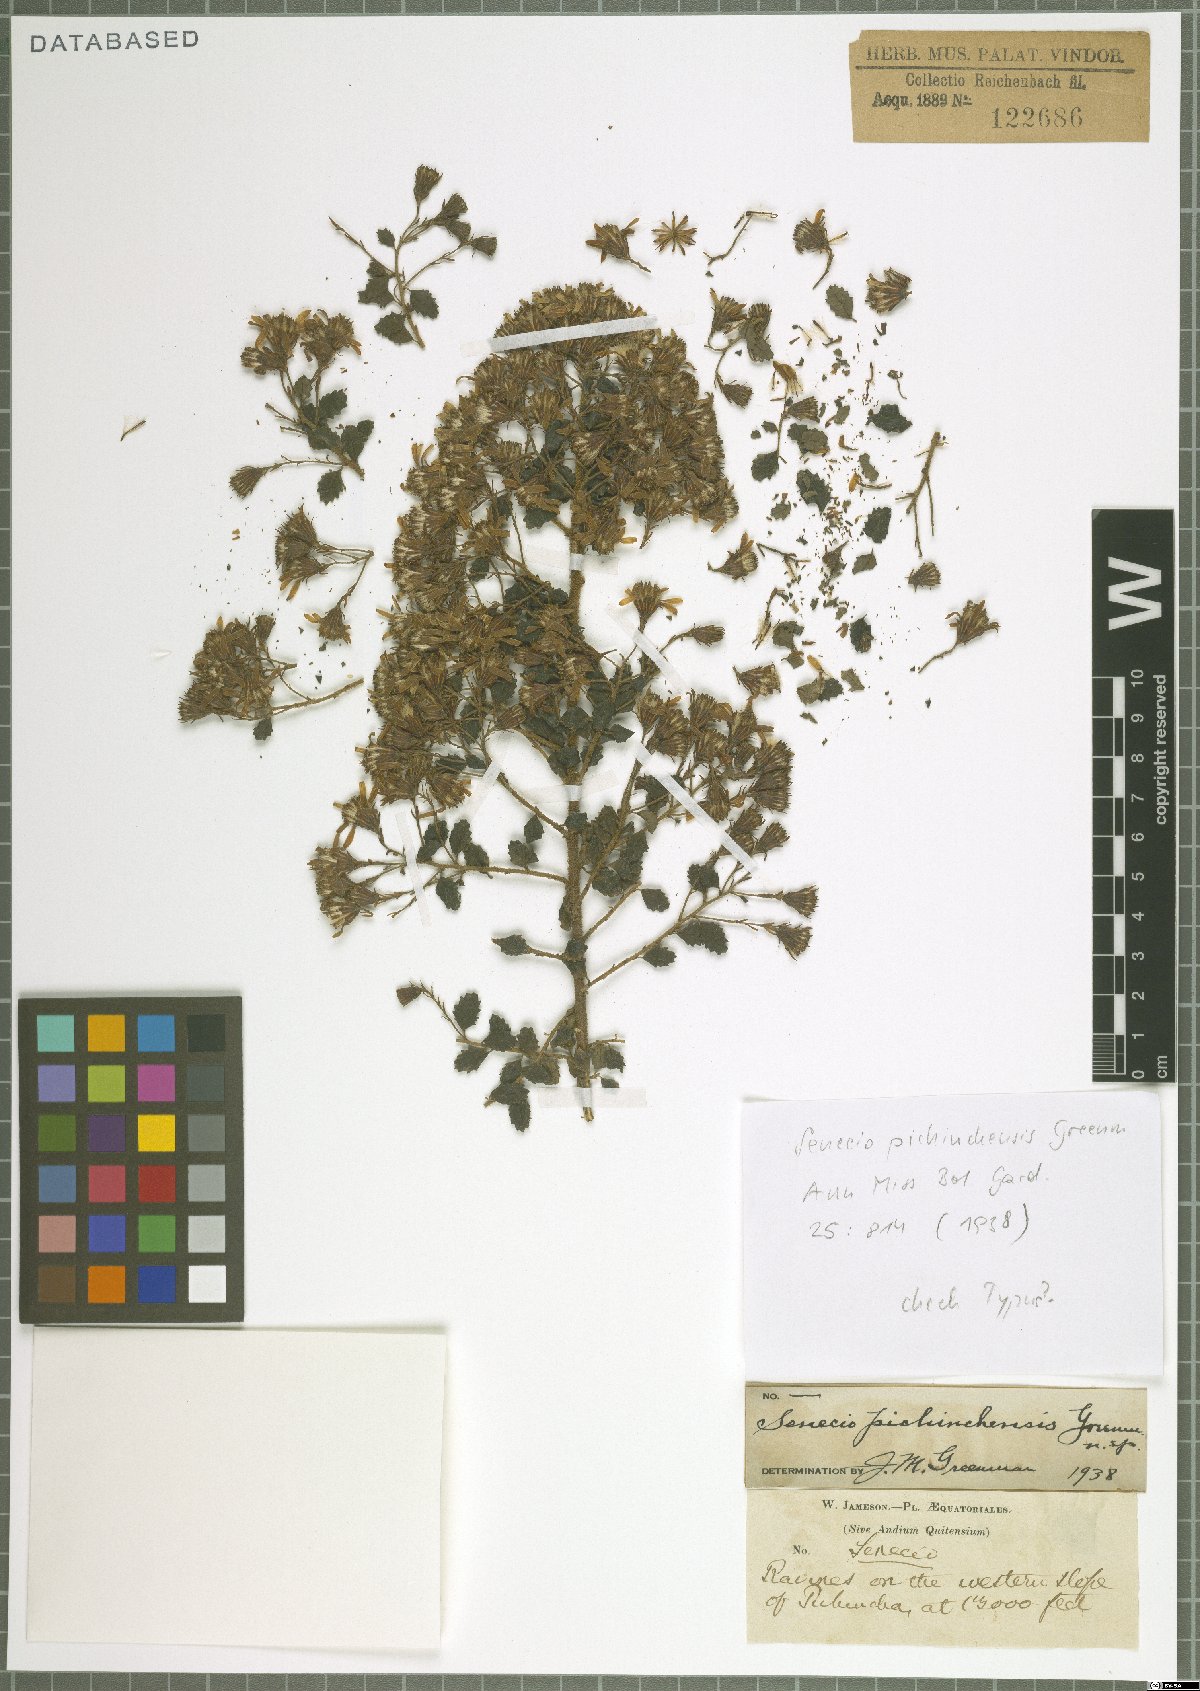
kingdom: Plantae
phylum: Tracheophyta
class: Magnoliopsida
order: Asterales
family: Asteraceae
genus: Monticalia
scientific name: Monticalia arbutifolia
